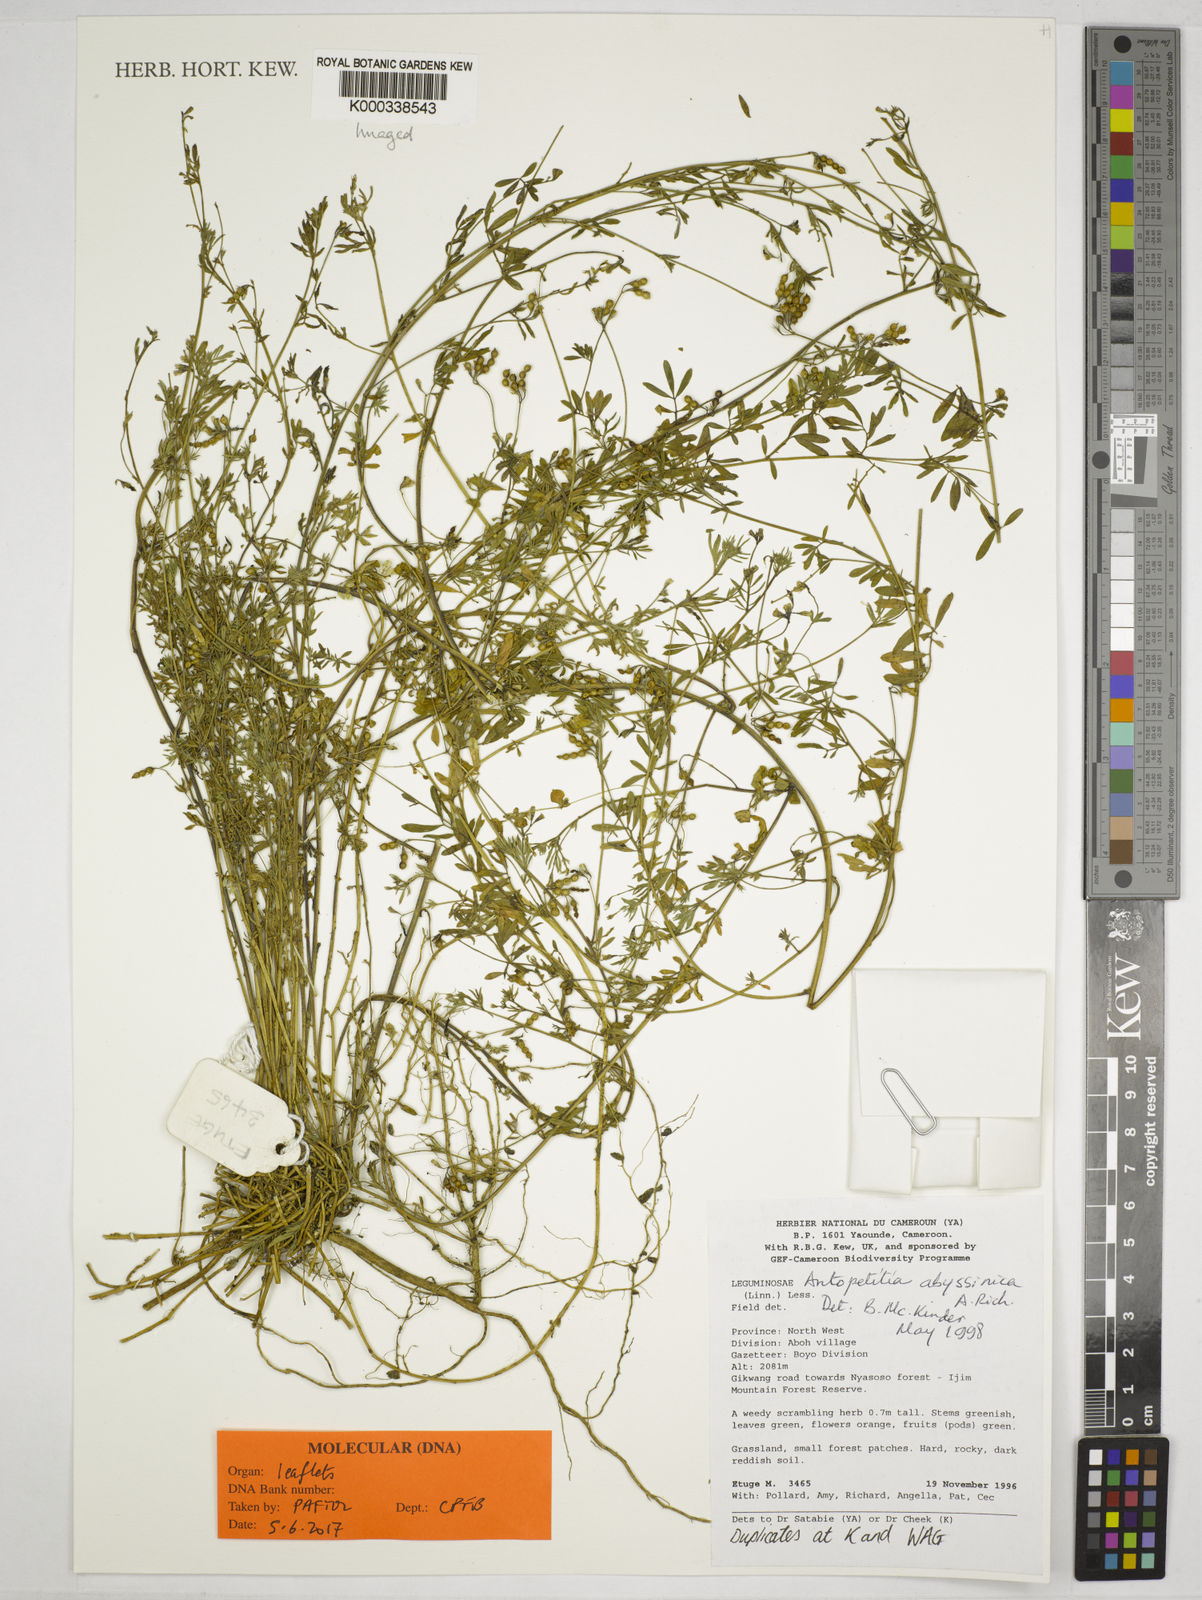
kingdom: Plantae
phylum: Tracheophyta
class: Magnoliopsida
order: Fabales
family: Fabaceae
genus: Antopetitia
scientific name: Antopetitia abyssinica
